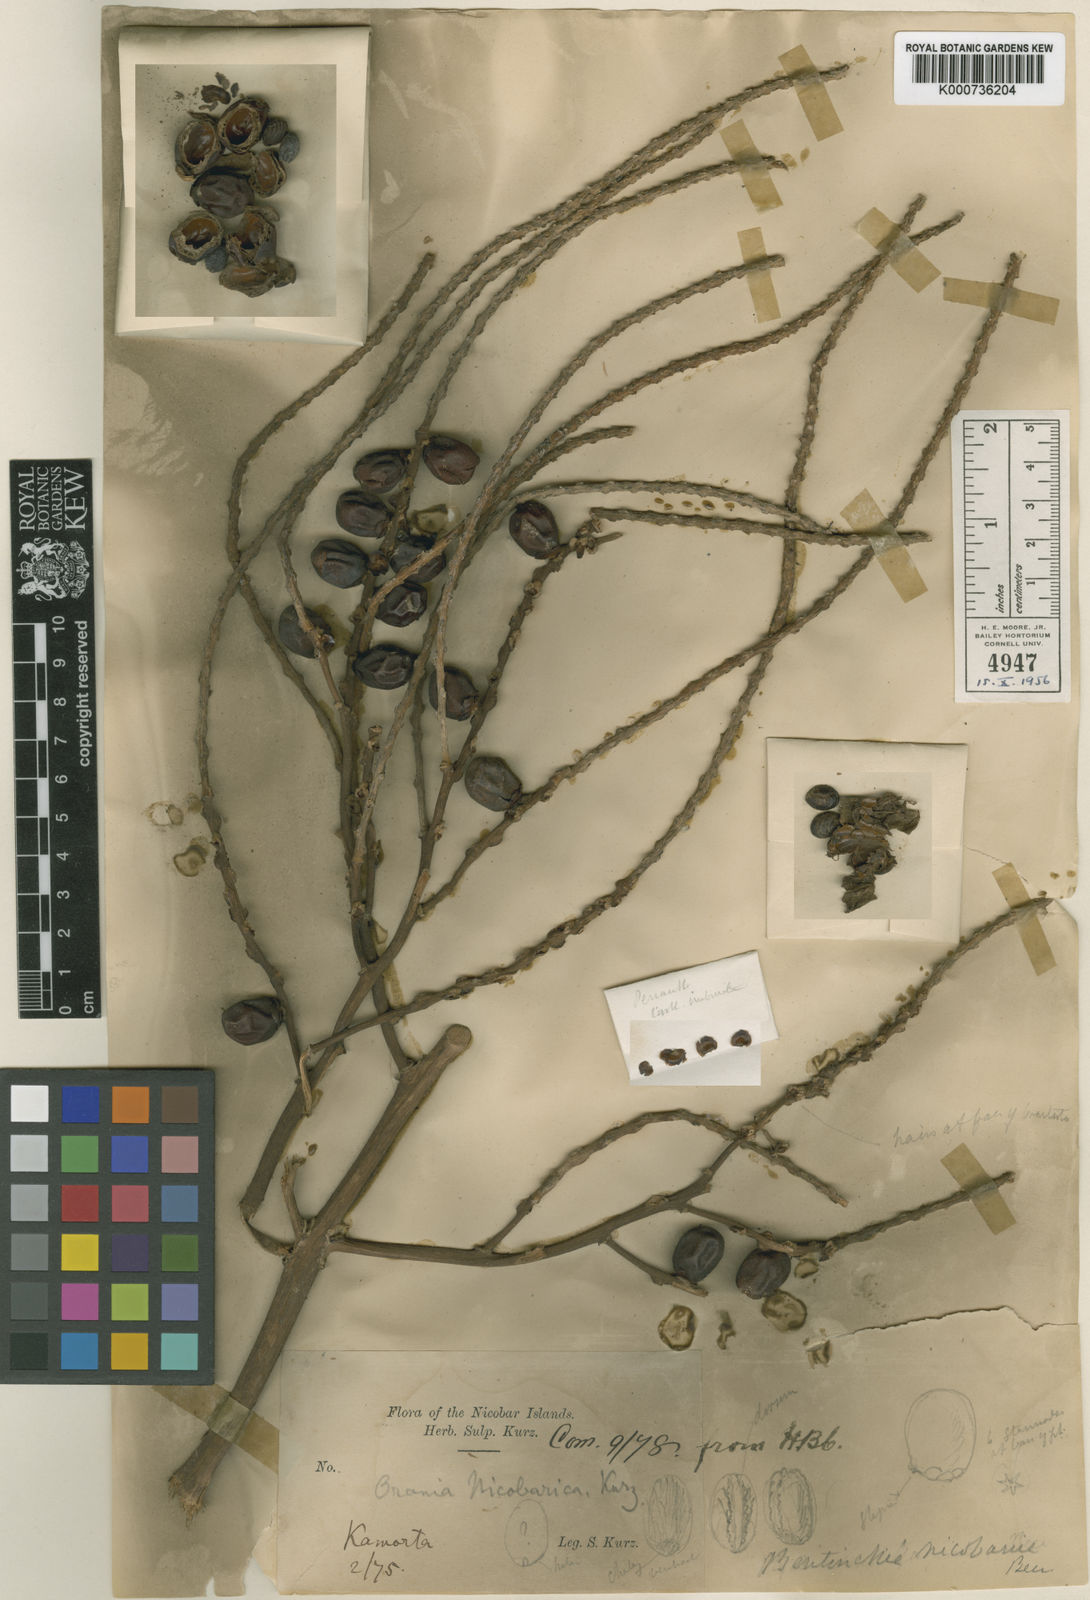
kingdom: Plantae
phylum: Tracheophyta
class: Liliopsida
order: Arecales
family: Arecaceae
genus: Bentinckia
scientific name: Bentinckia nicobarica
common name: Nicobar palm
